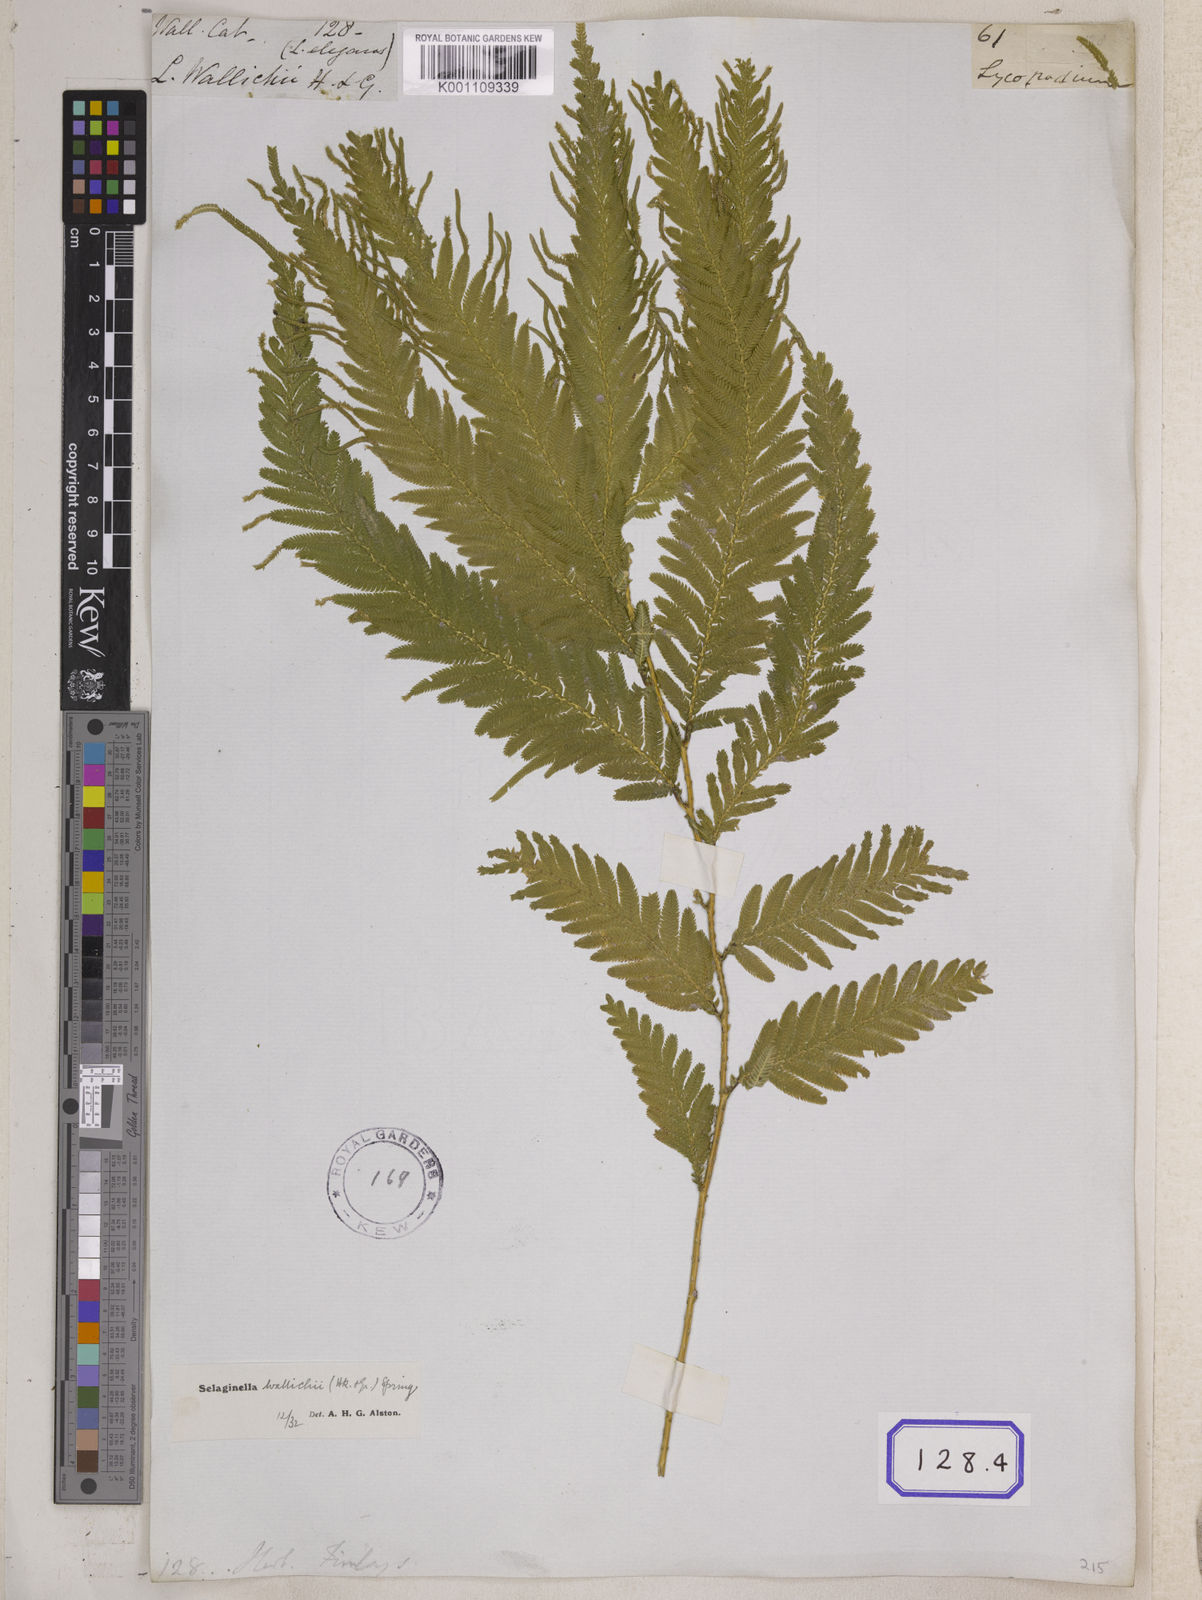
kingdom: Plantae
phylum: Tracheophyta
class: Lycopodiopsida
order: Selaginellales
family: Selaginellaceae
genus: Selaginella
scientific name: Selaginella wallichii
